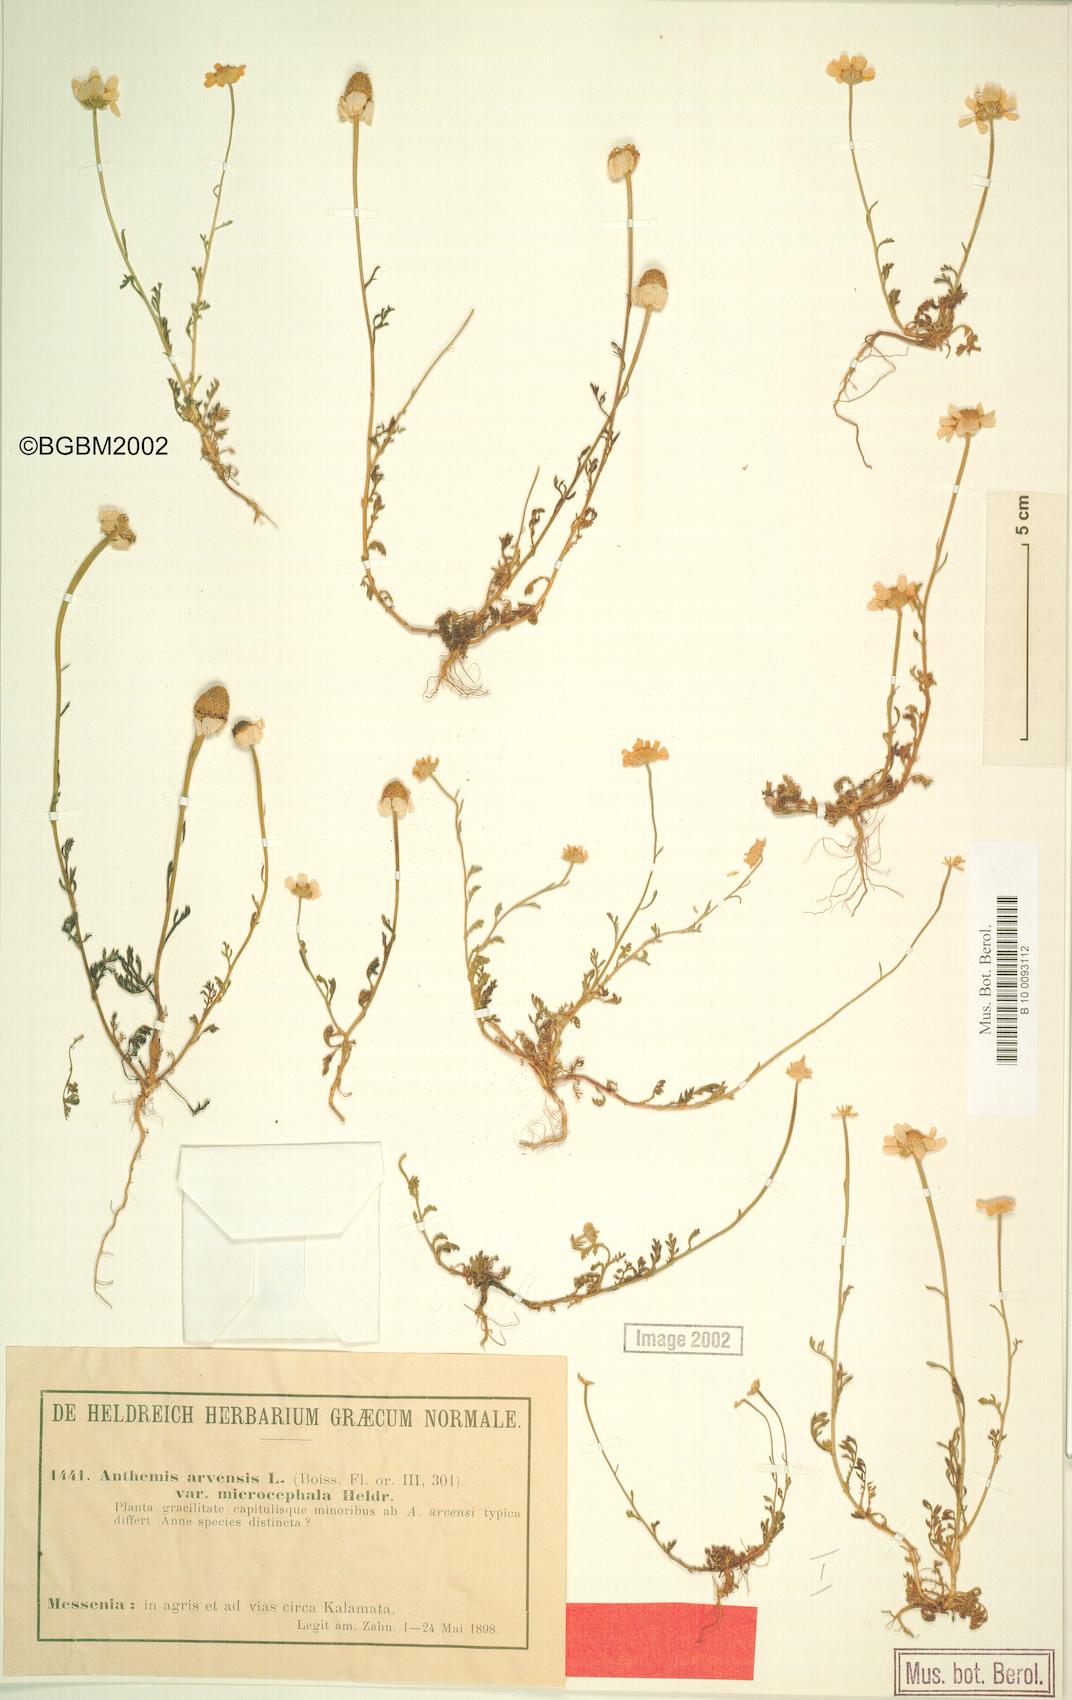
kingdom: Plantae
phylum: Tracheophyta
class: Magnoliopsida
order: Asterales
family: Asteraceae
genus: Anthemis
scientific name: Anthemis arvensis
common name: Corn chamomile
